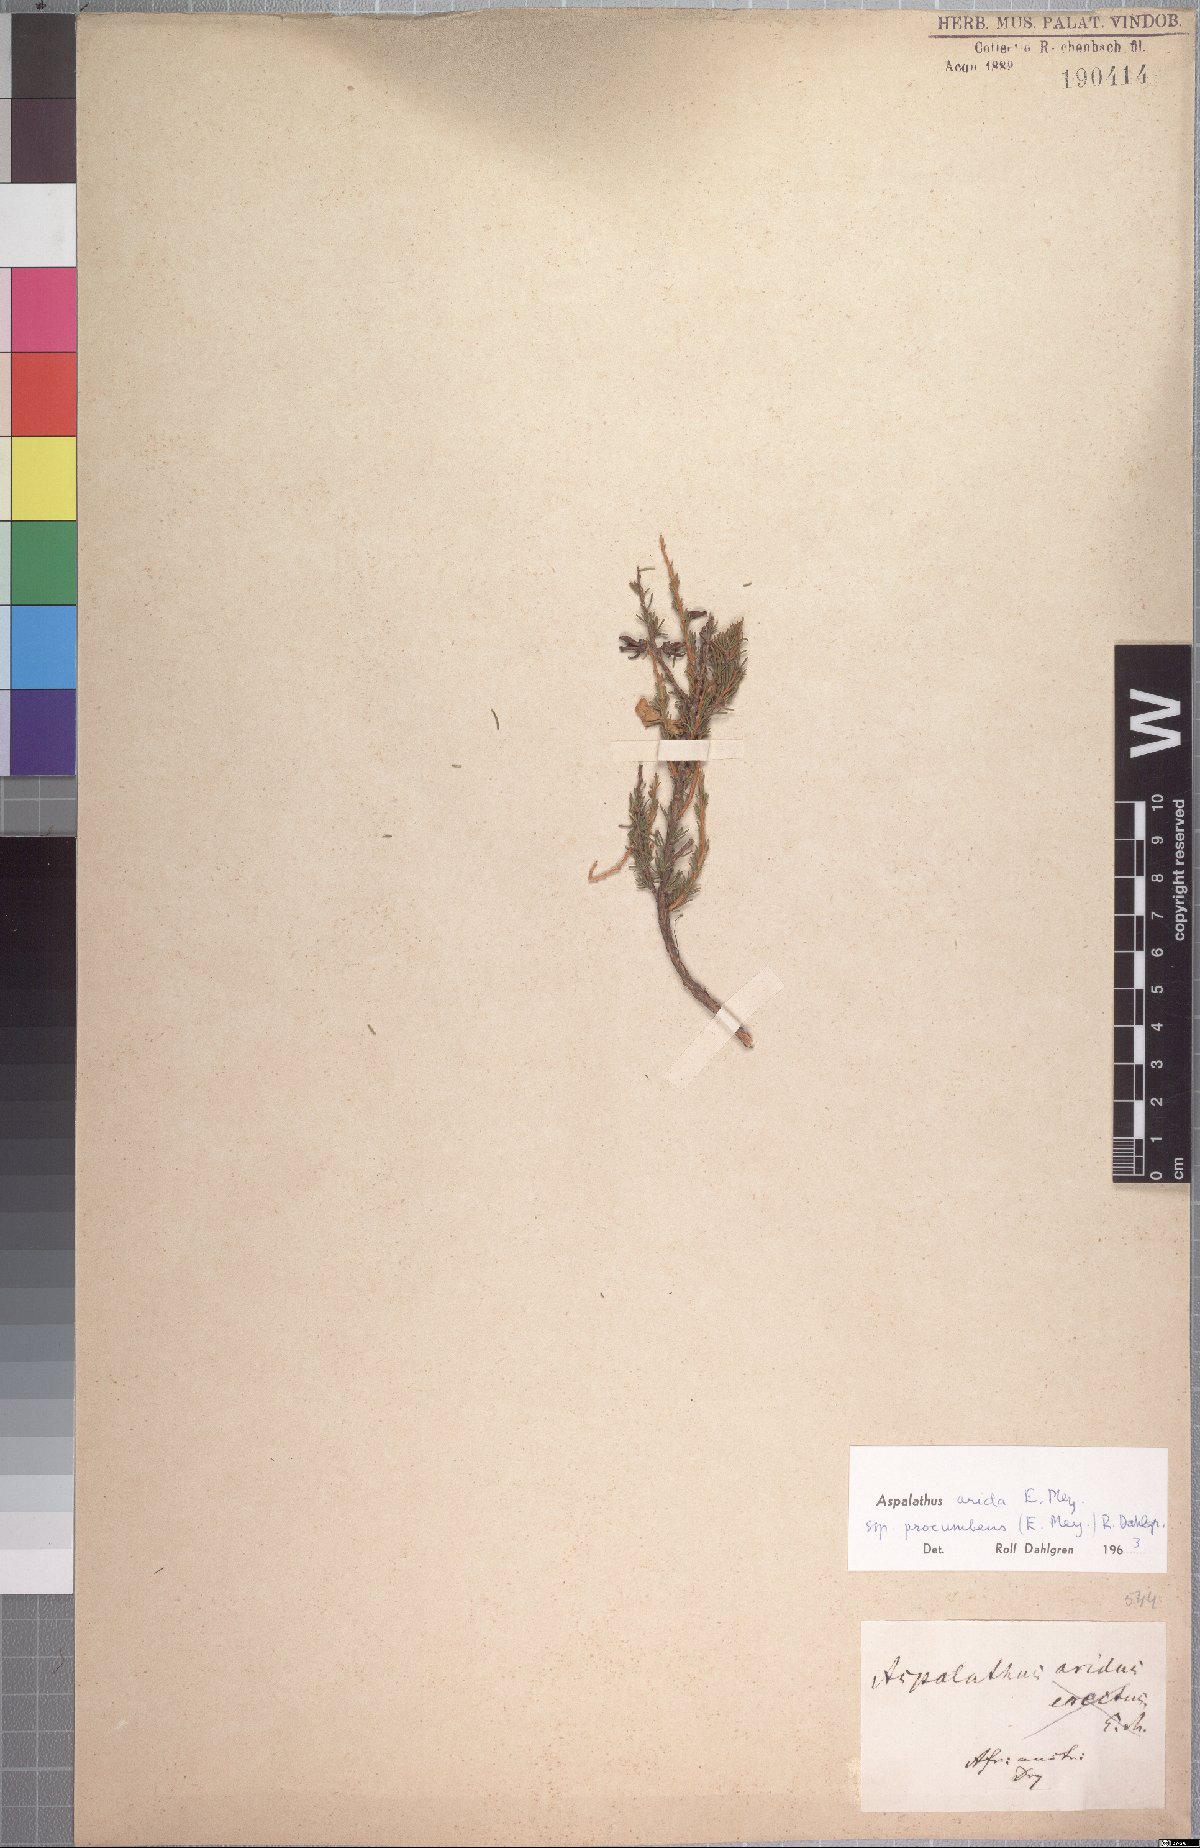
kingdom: Plantae
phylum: Tracheophyta
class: Magnoliopsida
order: Fabales
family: Fabaceae
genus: Aspalathus
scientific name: Aspalathus arida
